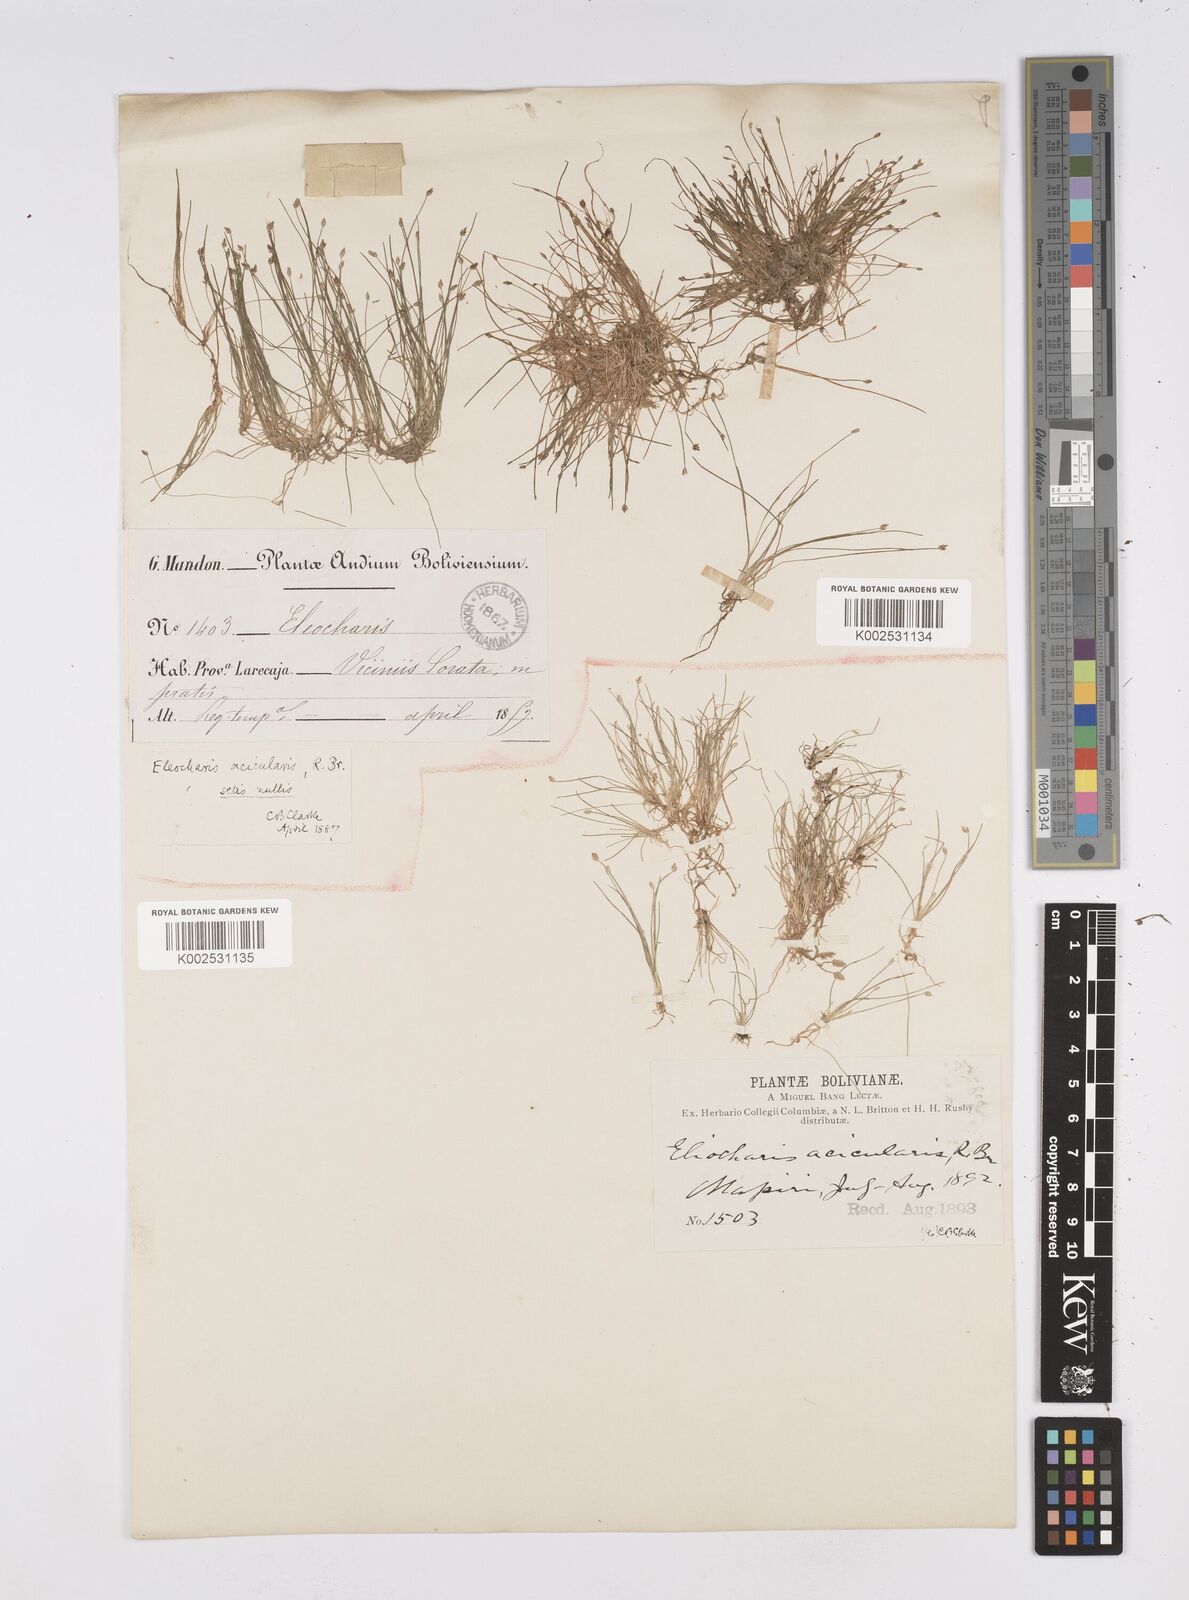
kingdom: Plantae
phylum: Tracheophyta
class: Liliopsida
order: Poales
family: Cyperaceae
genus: Eleocharis
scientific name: Eleocharis exigua
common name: Spikesedge
